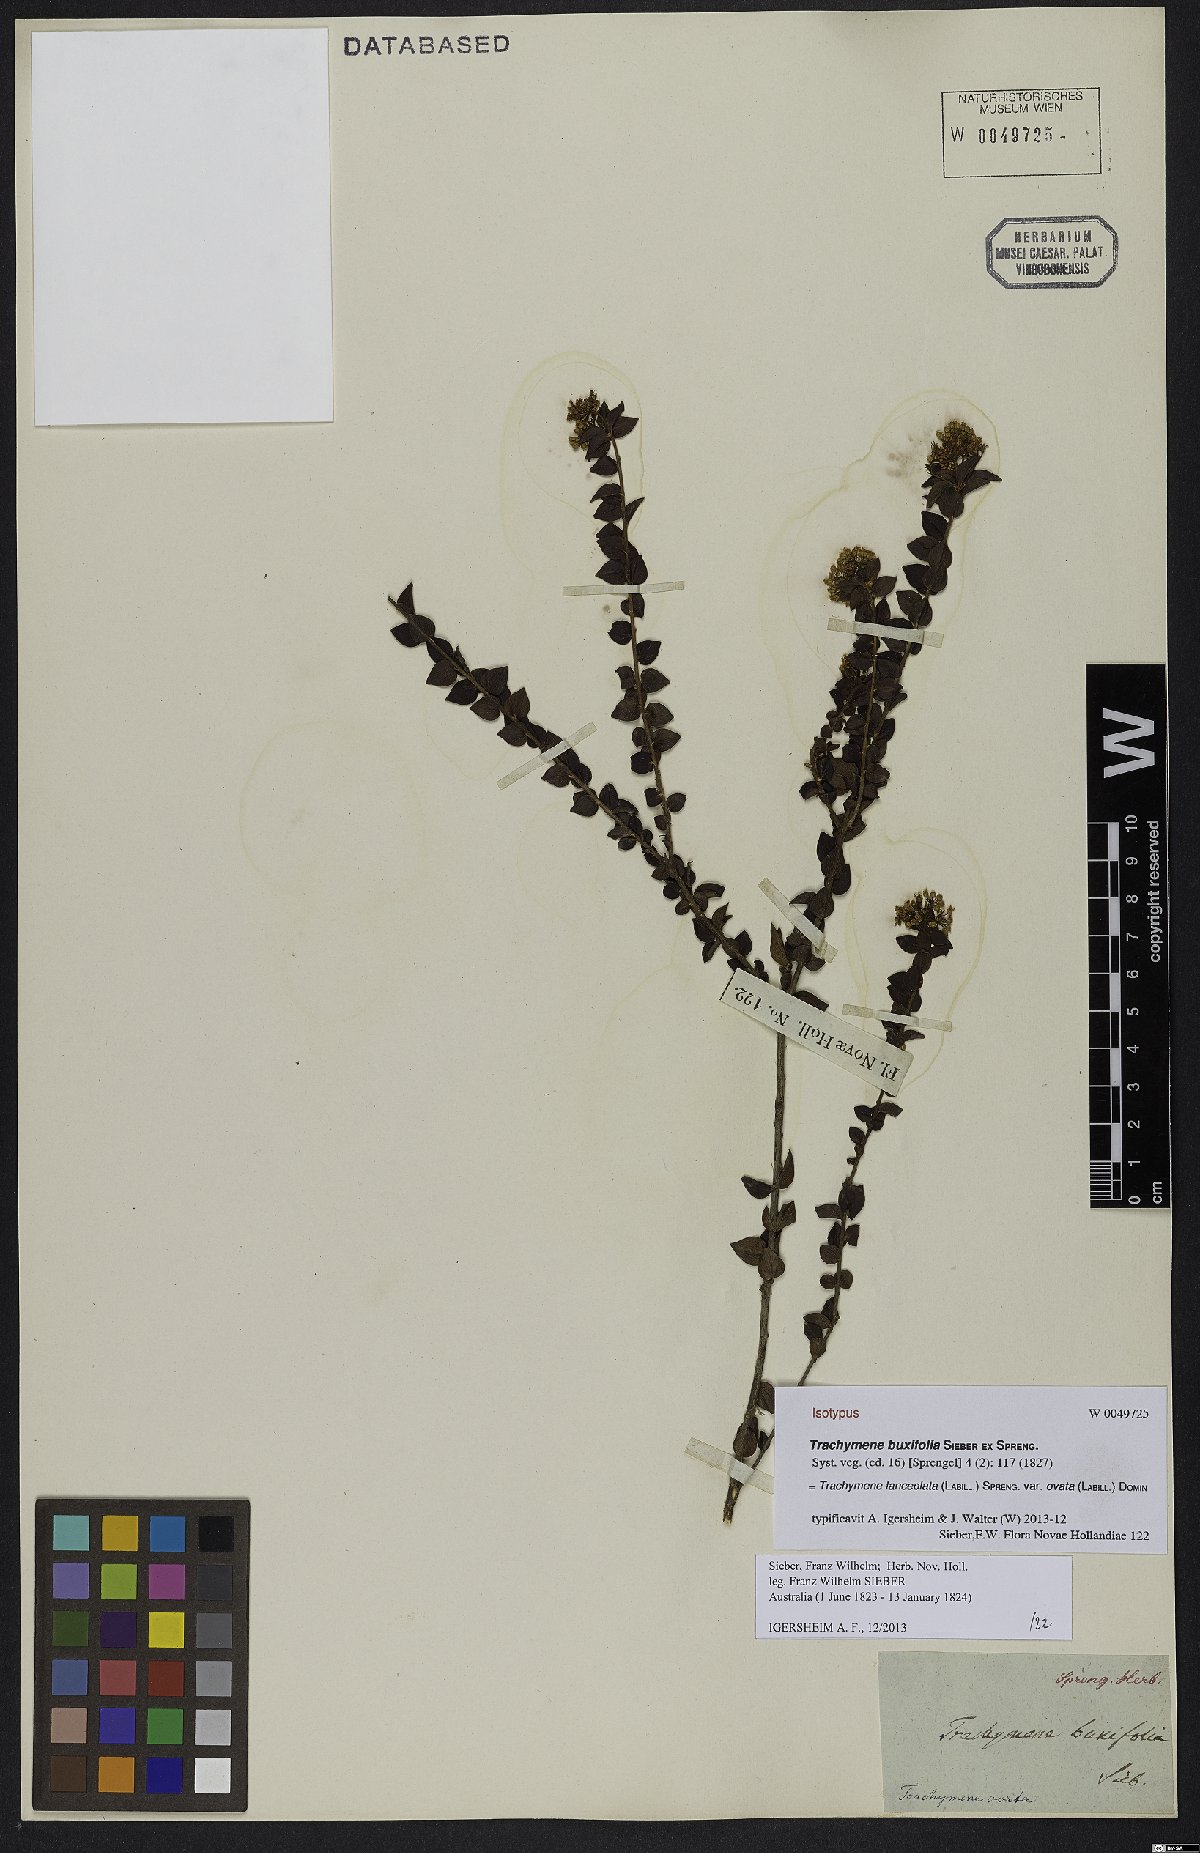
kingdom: Plantae
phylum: Tracheophyta
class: Magnoliopsida
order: Apiales
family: Apiaceae
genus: Platysace
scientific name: Platysace lanceolata
